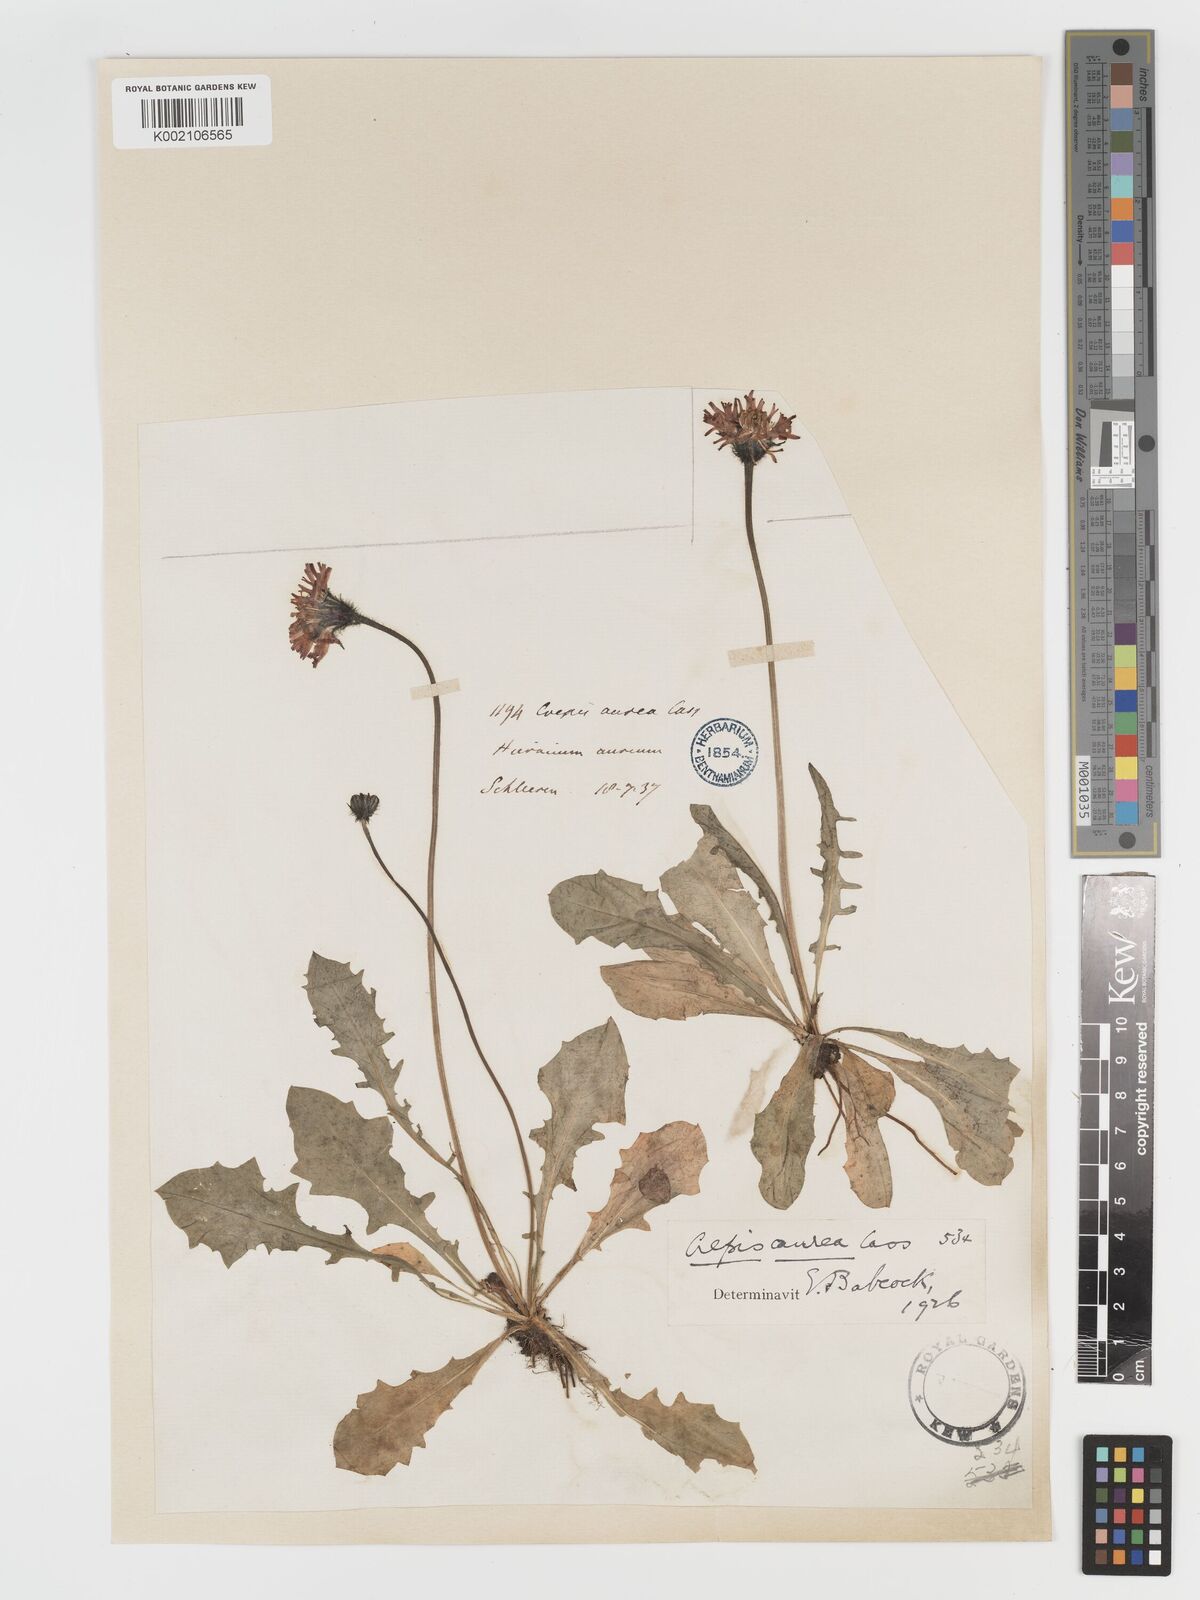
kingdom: Plantae
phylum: Tracheophyta
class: Magnoliopsida
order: Asterales
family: Asteraceae
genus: Crepis
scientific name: Crepis aurea
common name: Golden hawk's-beard
